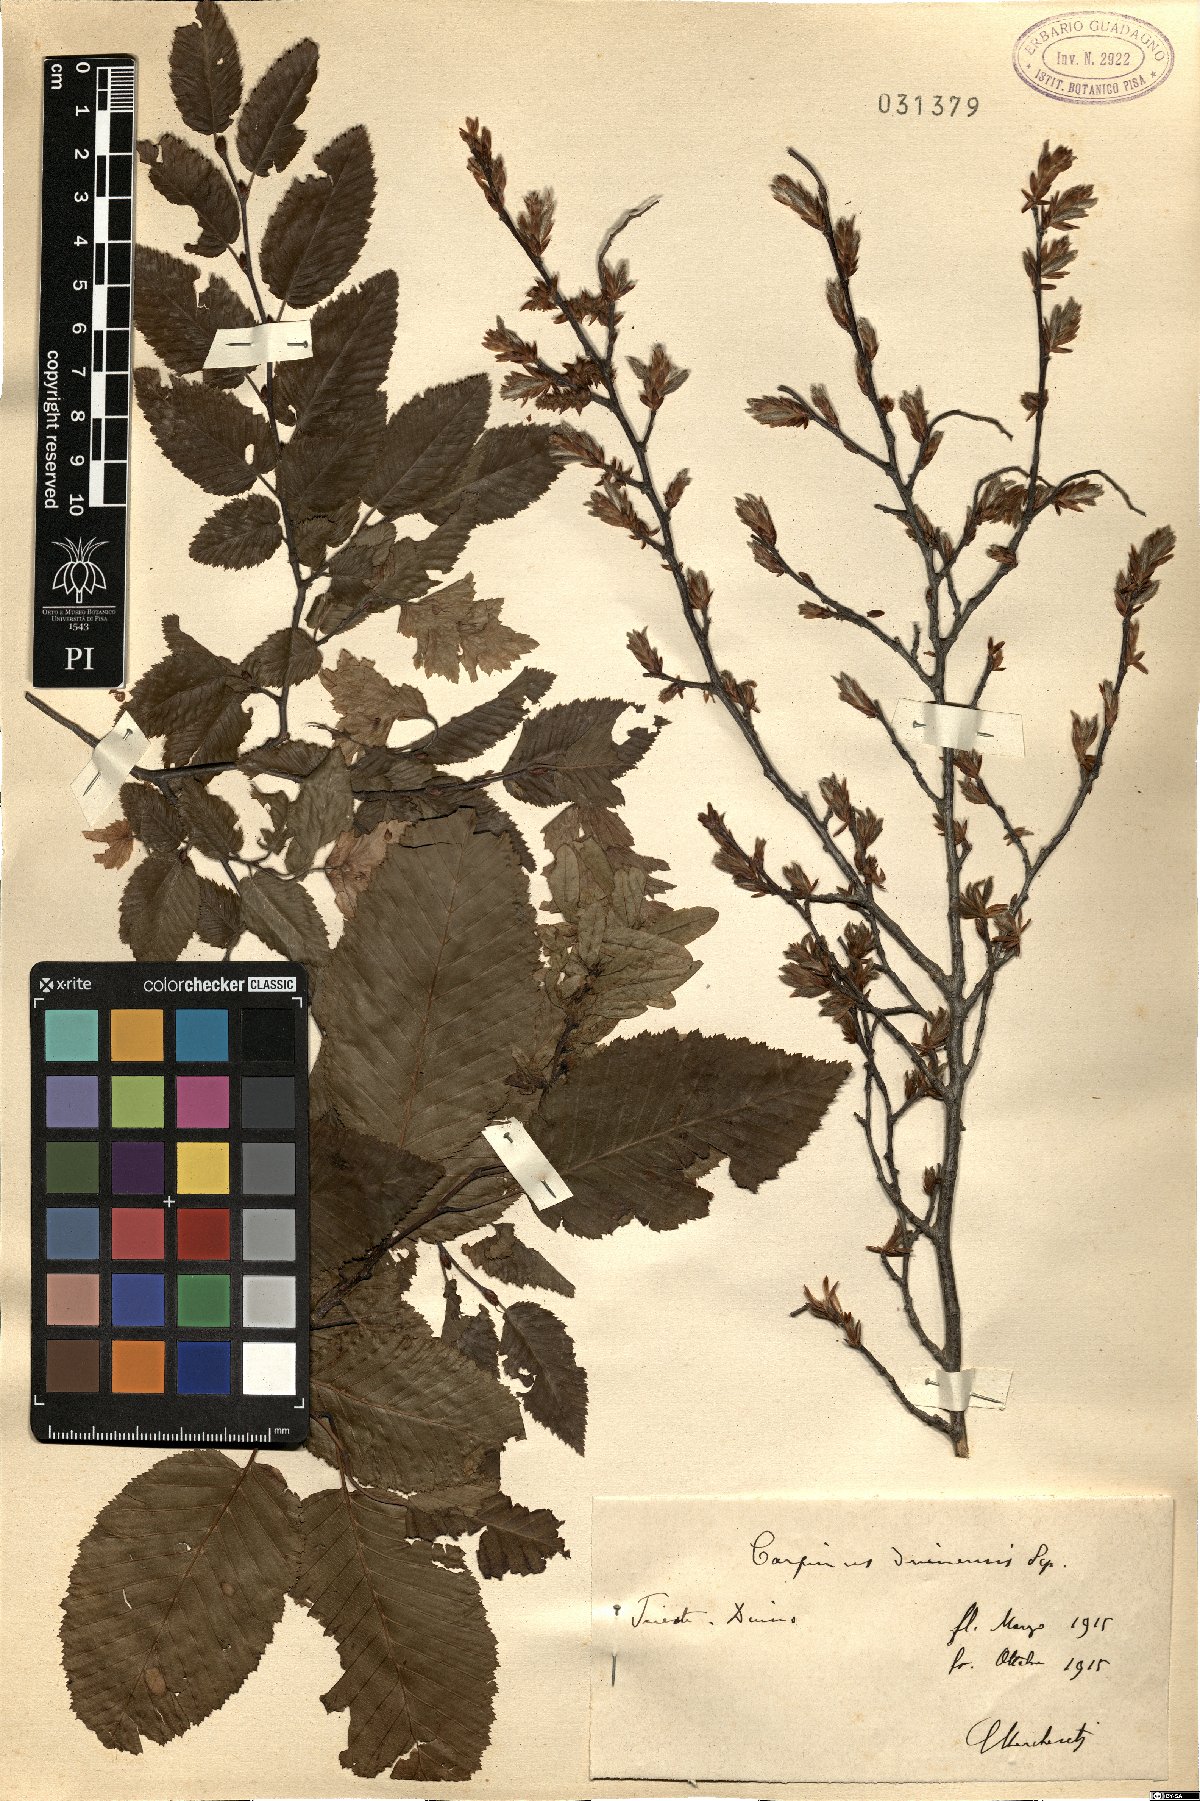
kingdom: Plantae
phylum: Tracheophyta
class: Magnoliopsida
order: Fagales
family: Betulaceae
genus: Carpinus
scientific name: Carpinus orientalis
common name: Eastern hornbeam
